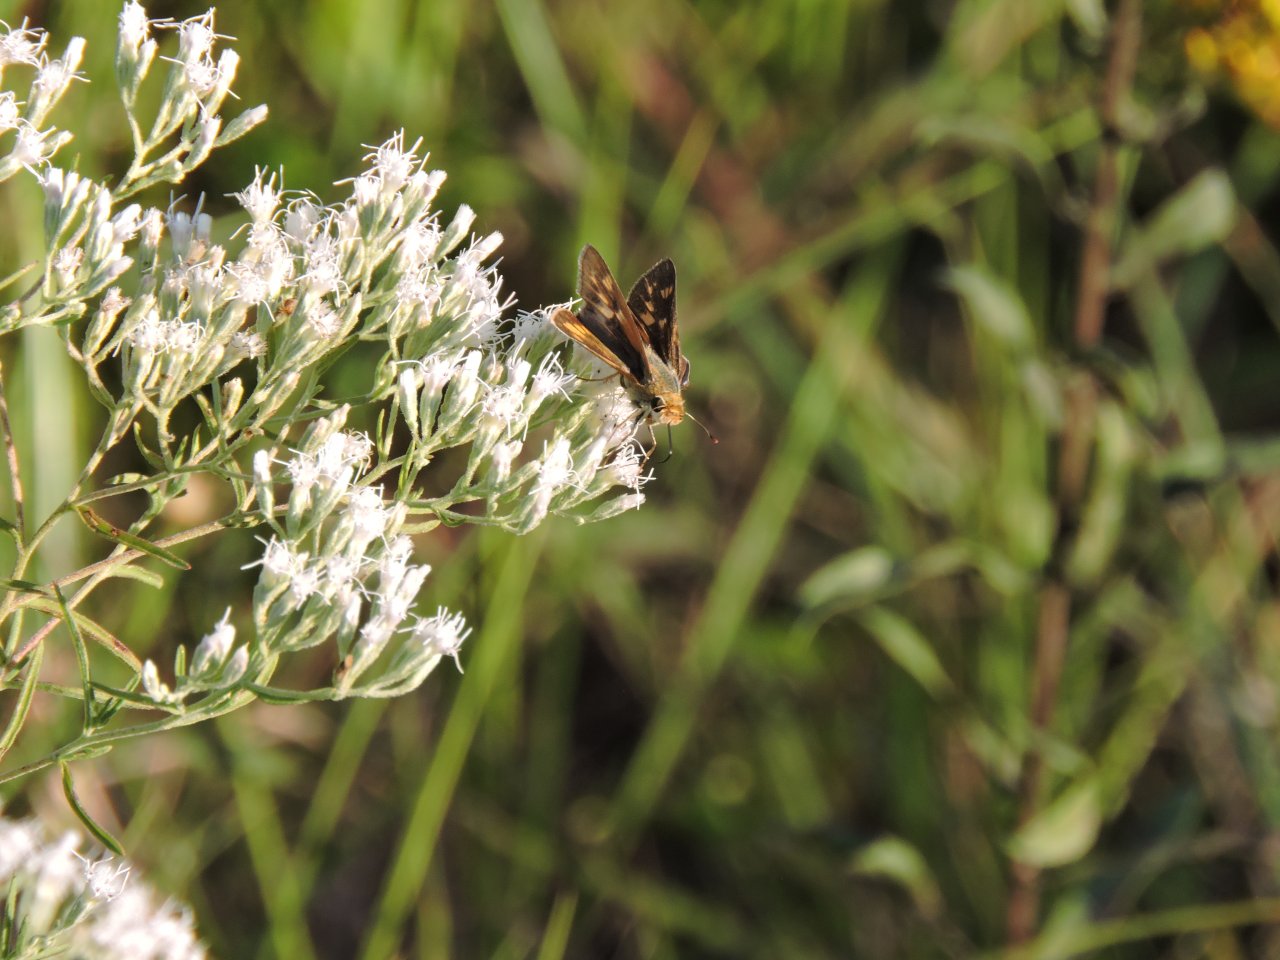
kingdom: Animalia
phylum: Arthropoda
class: Insecta
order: Lepidoptera
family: Hesperiidae
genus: Atalopedes
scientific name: Atalopedes campestris
